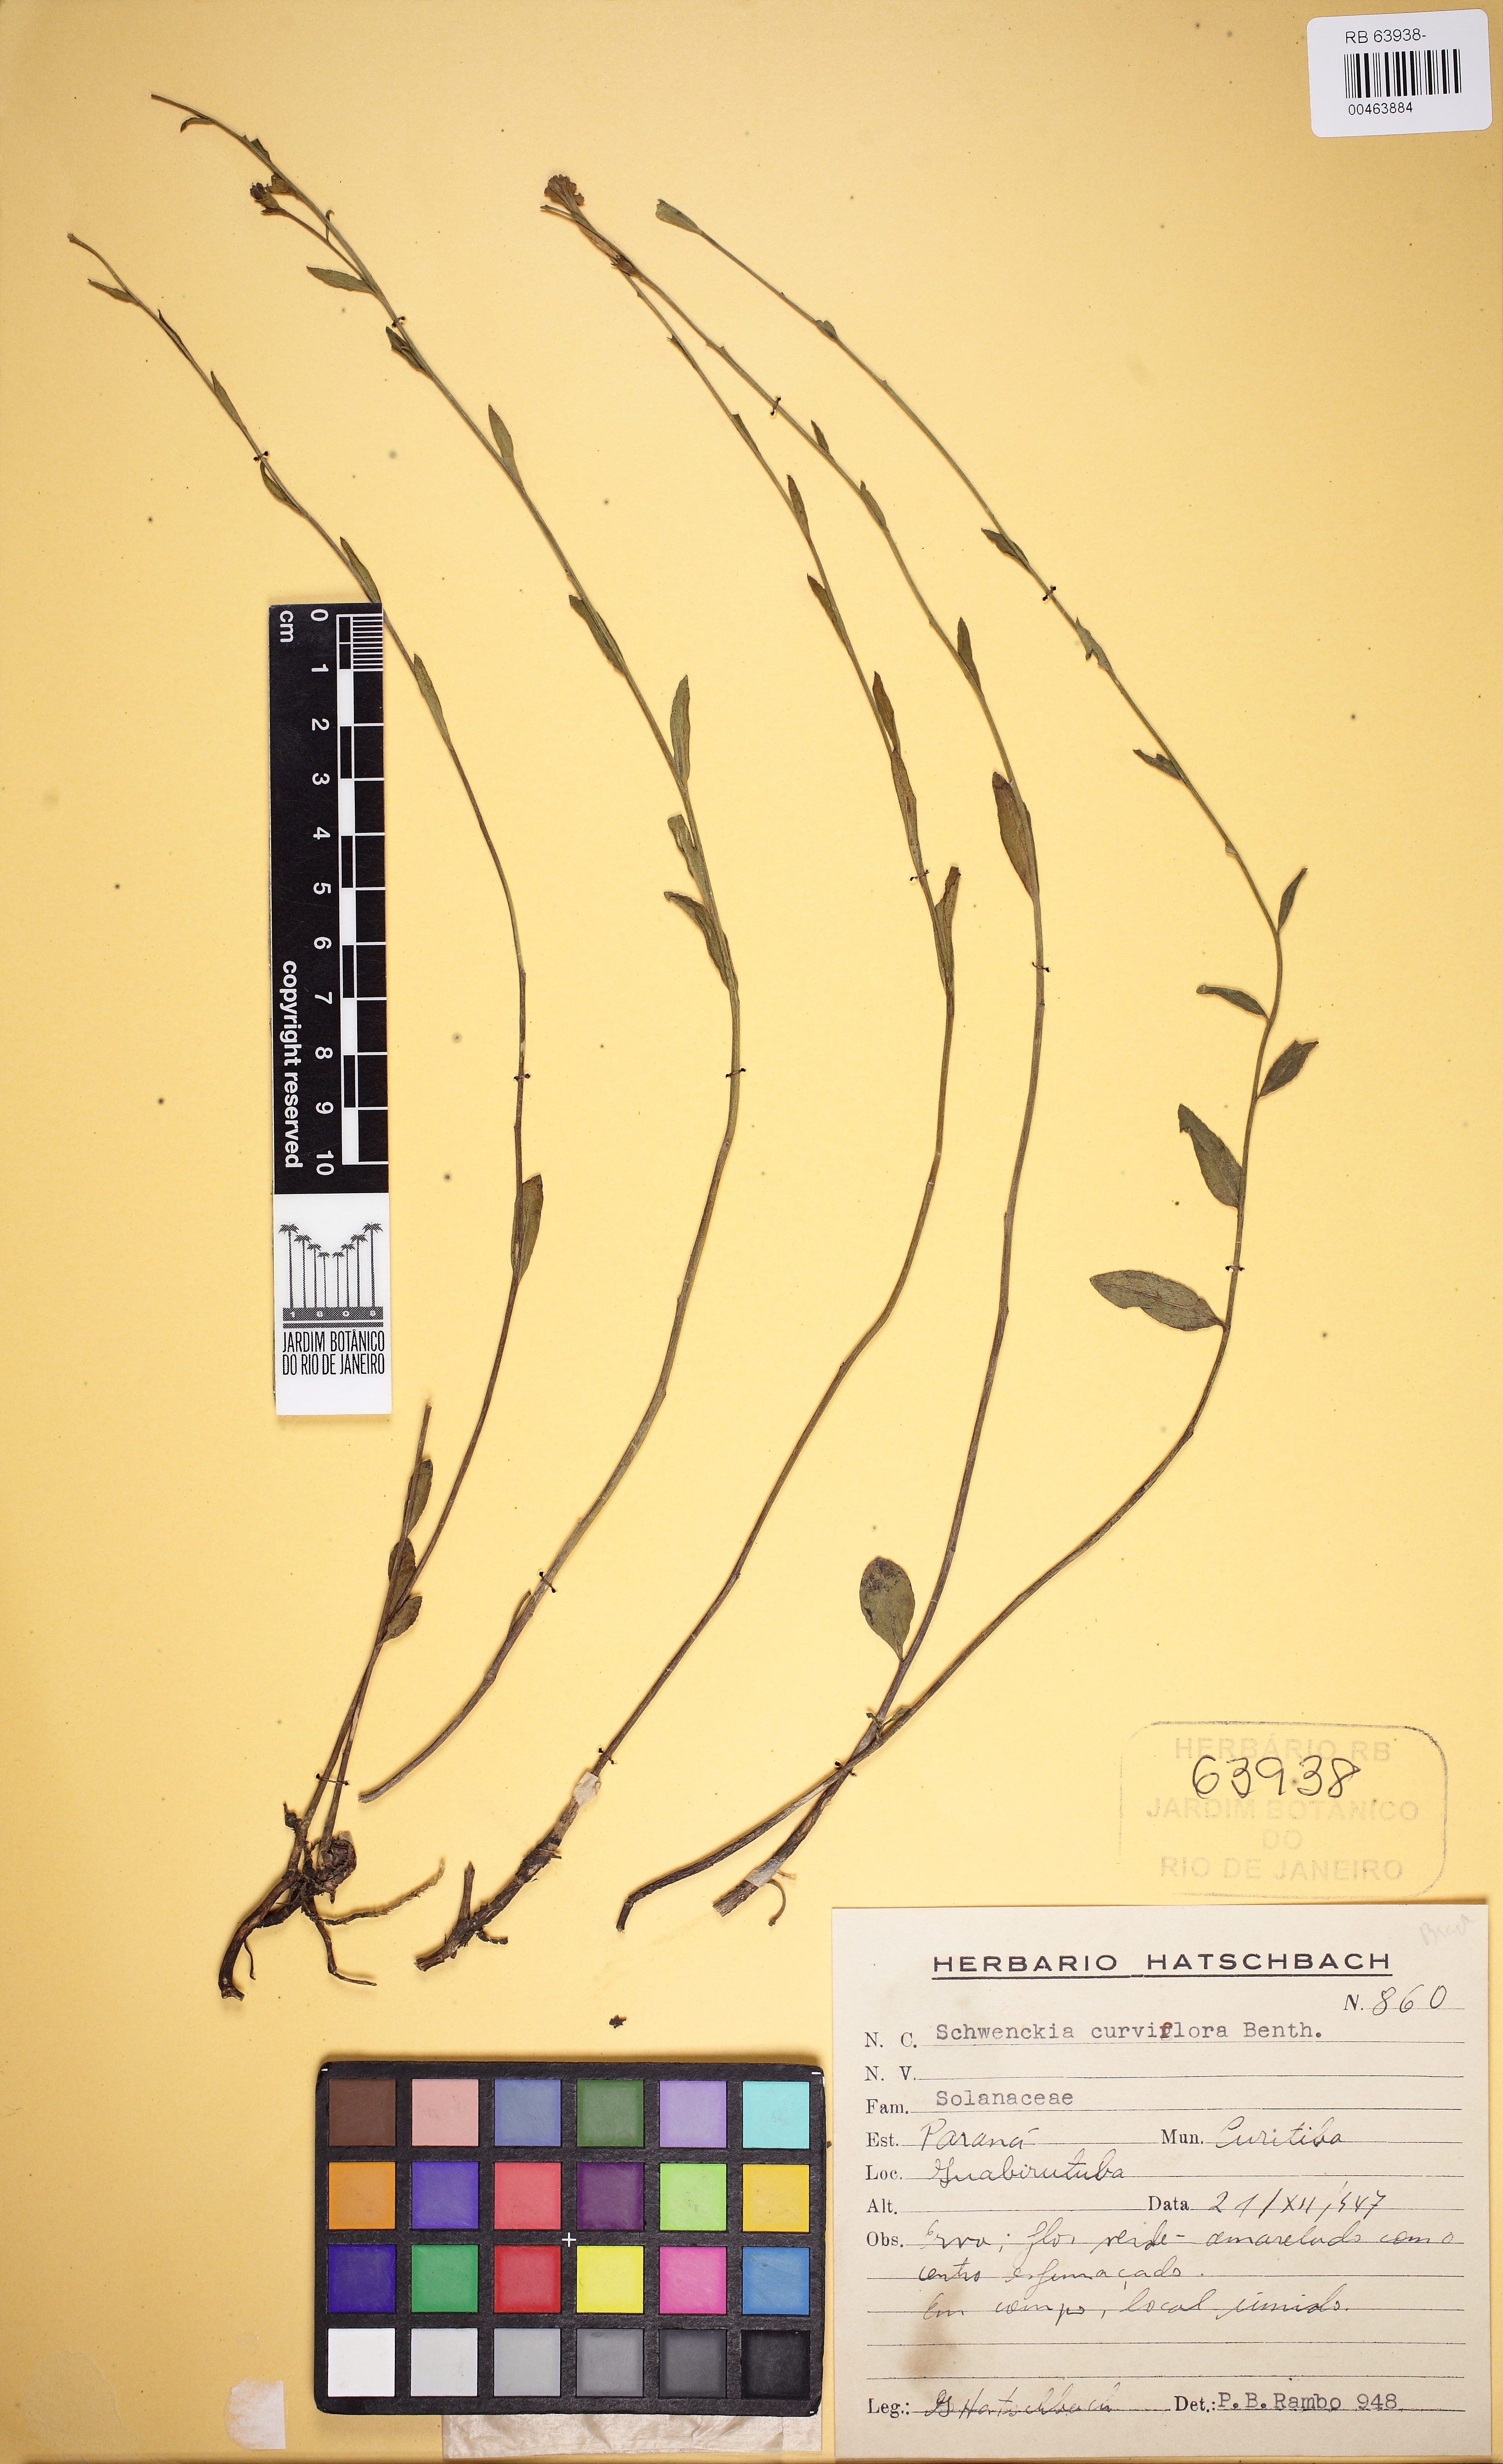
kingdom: Plantae
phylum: Tracheophyta
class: Magnoliopsida
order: Solanales
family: Solanaceae
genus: Schwenckia
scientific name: Schwenckia curviflora
